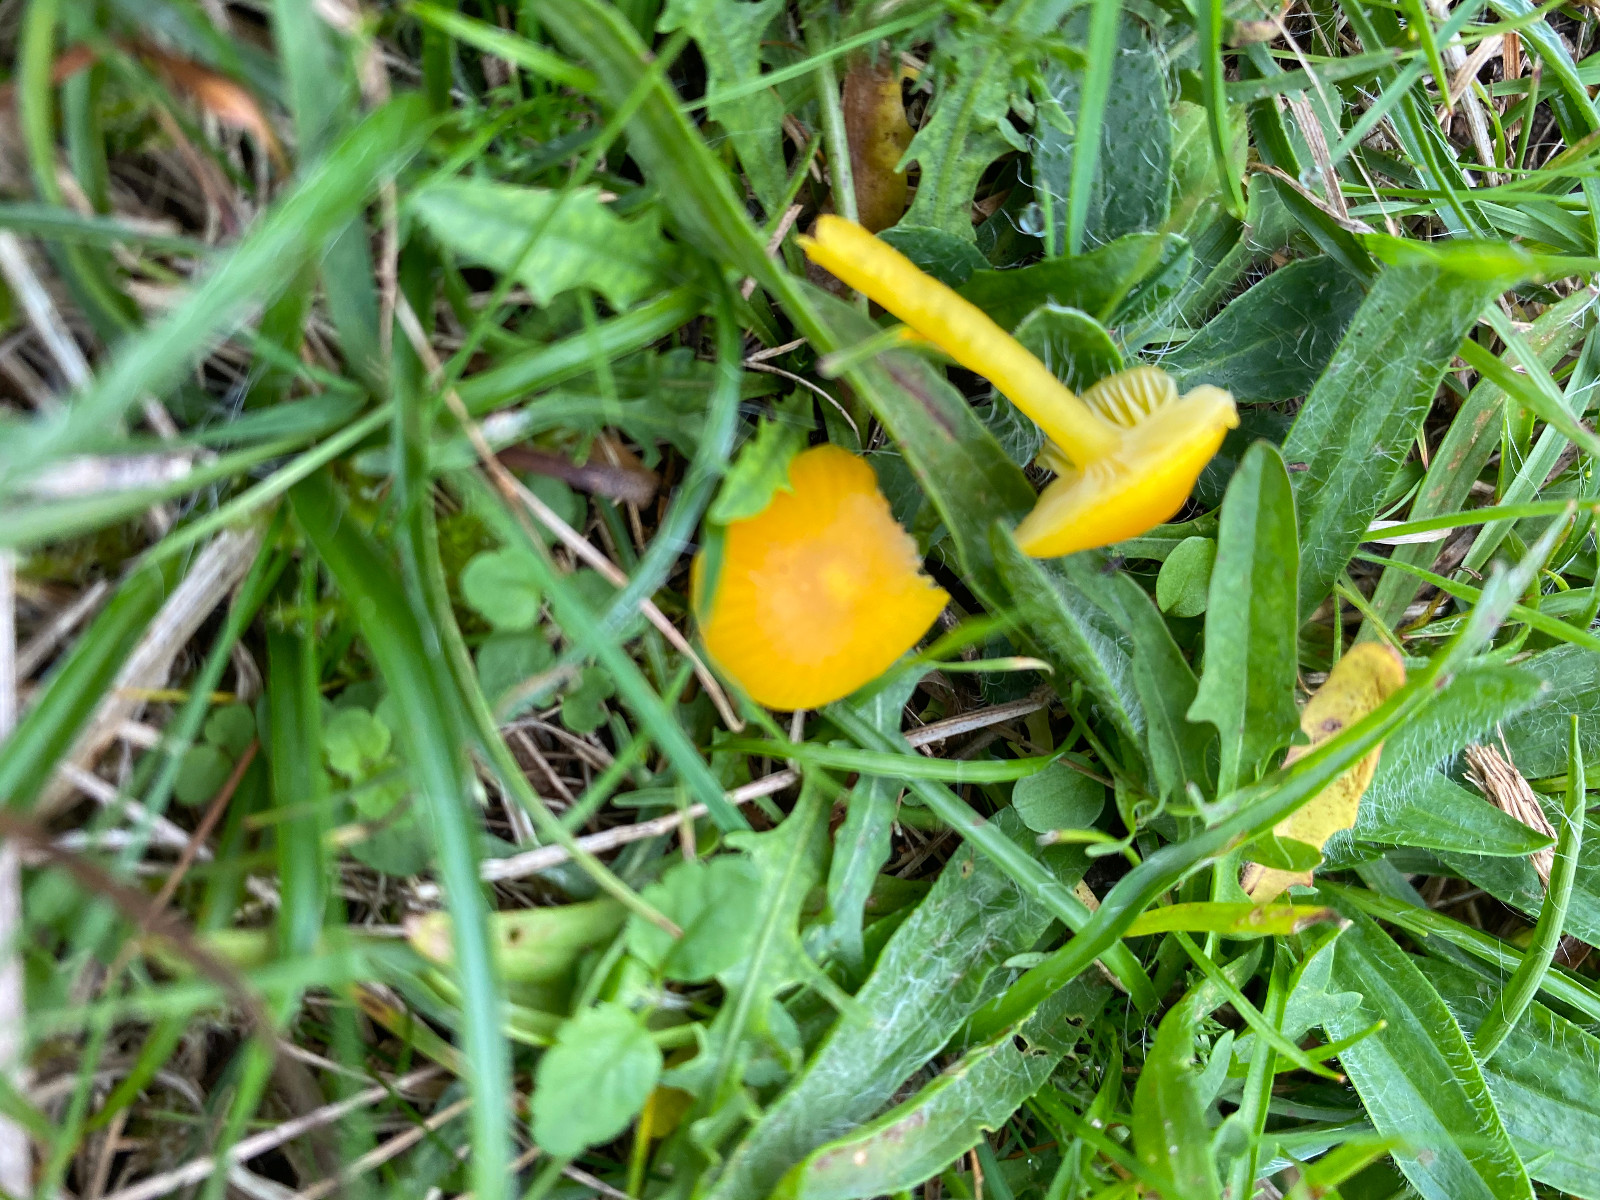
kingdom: Fungi
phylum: Basidiomycota
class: Agaricomycetes
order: Agaricales
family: Hygrophoraceae
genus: Hygrocybe
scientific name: Hygrocybe ceracea
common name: voksgul vokshat
